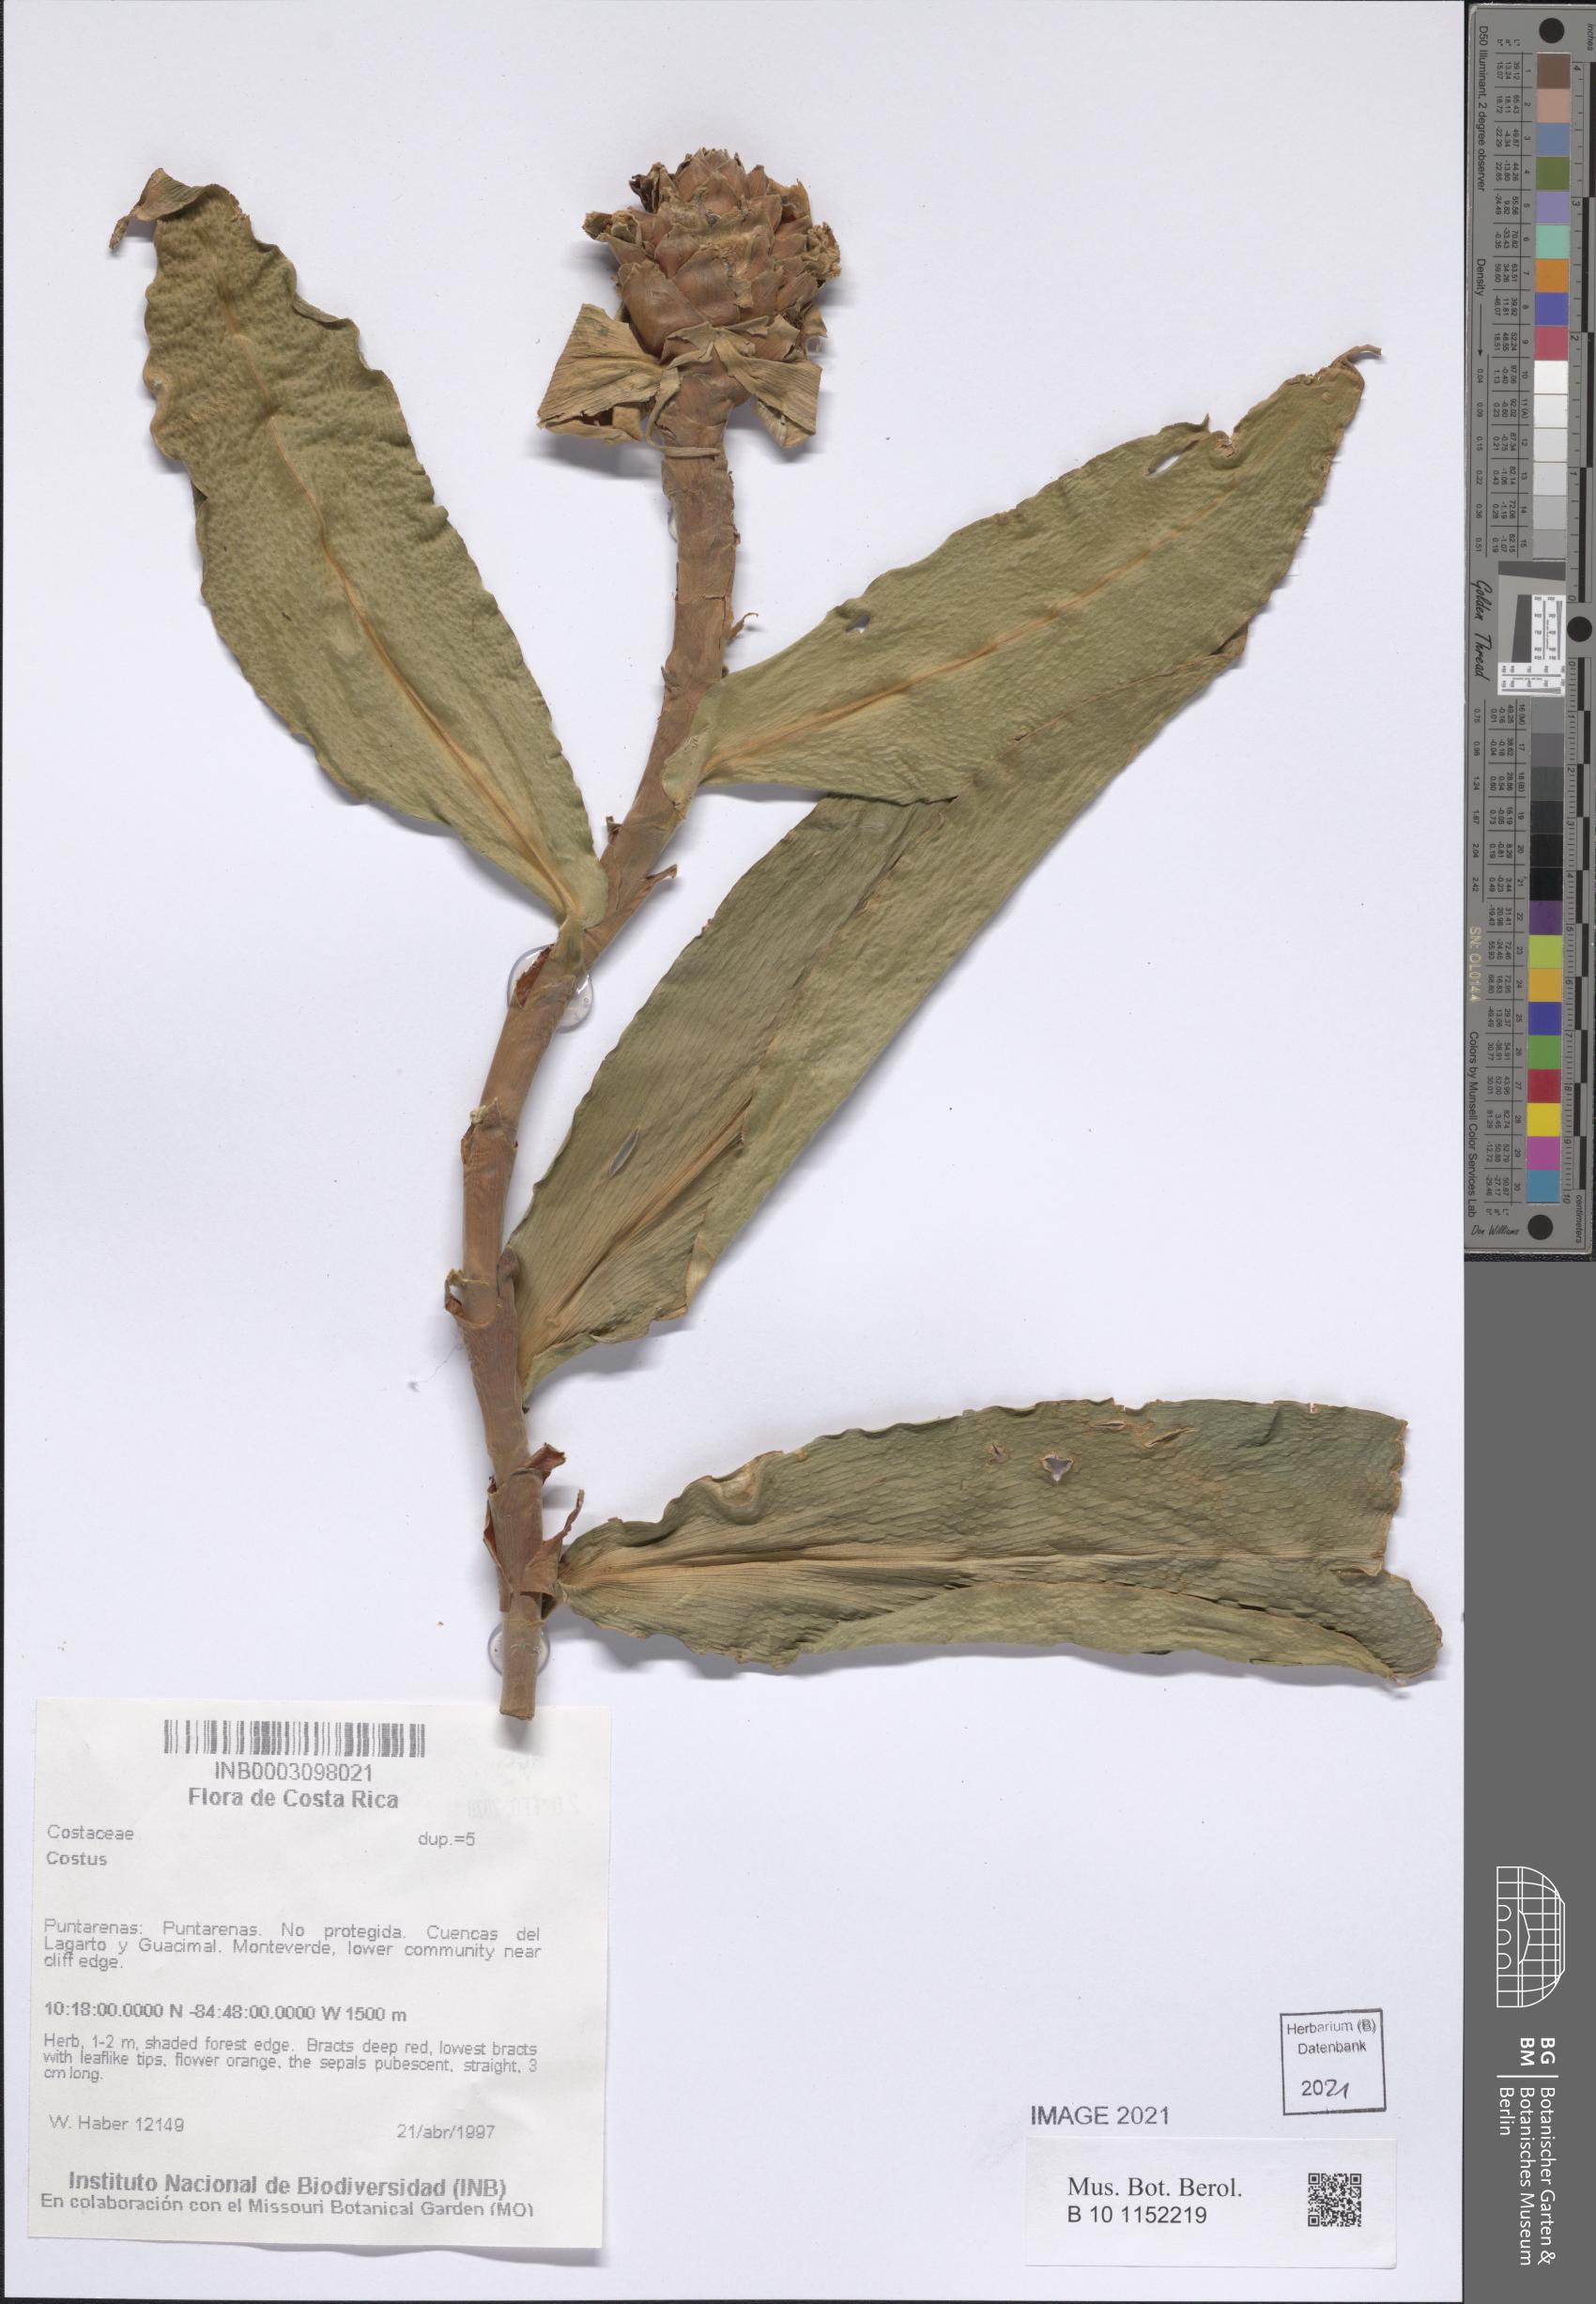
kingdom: Plantae
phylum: Tracheophyta
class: Liliopsida
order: Zingiberales
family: Costaceae
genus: Costus
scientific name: Costus
